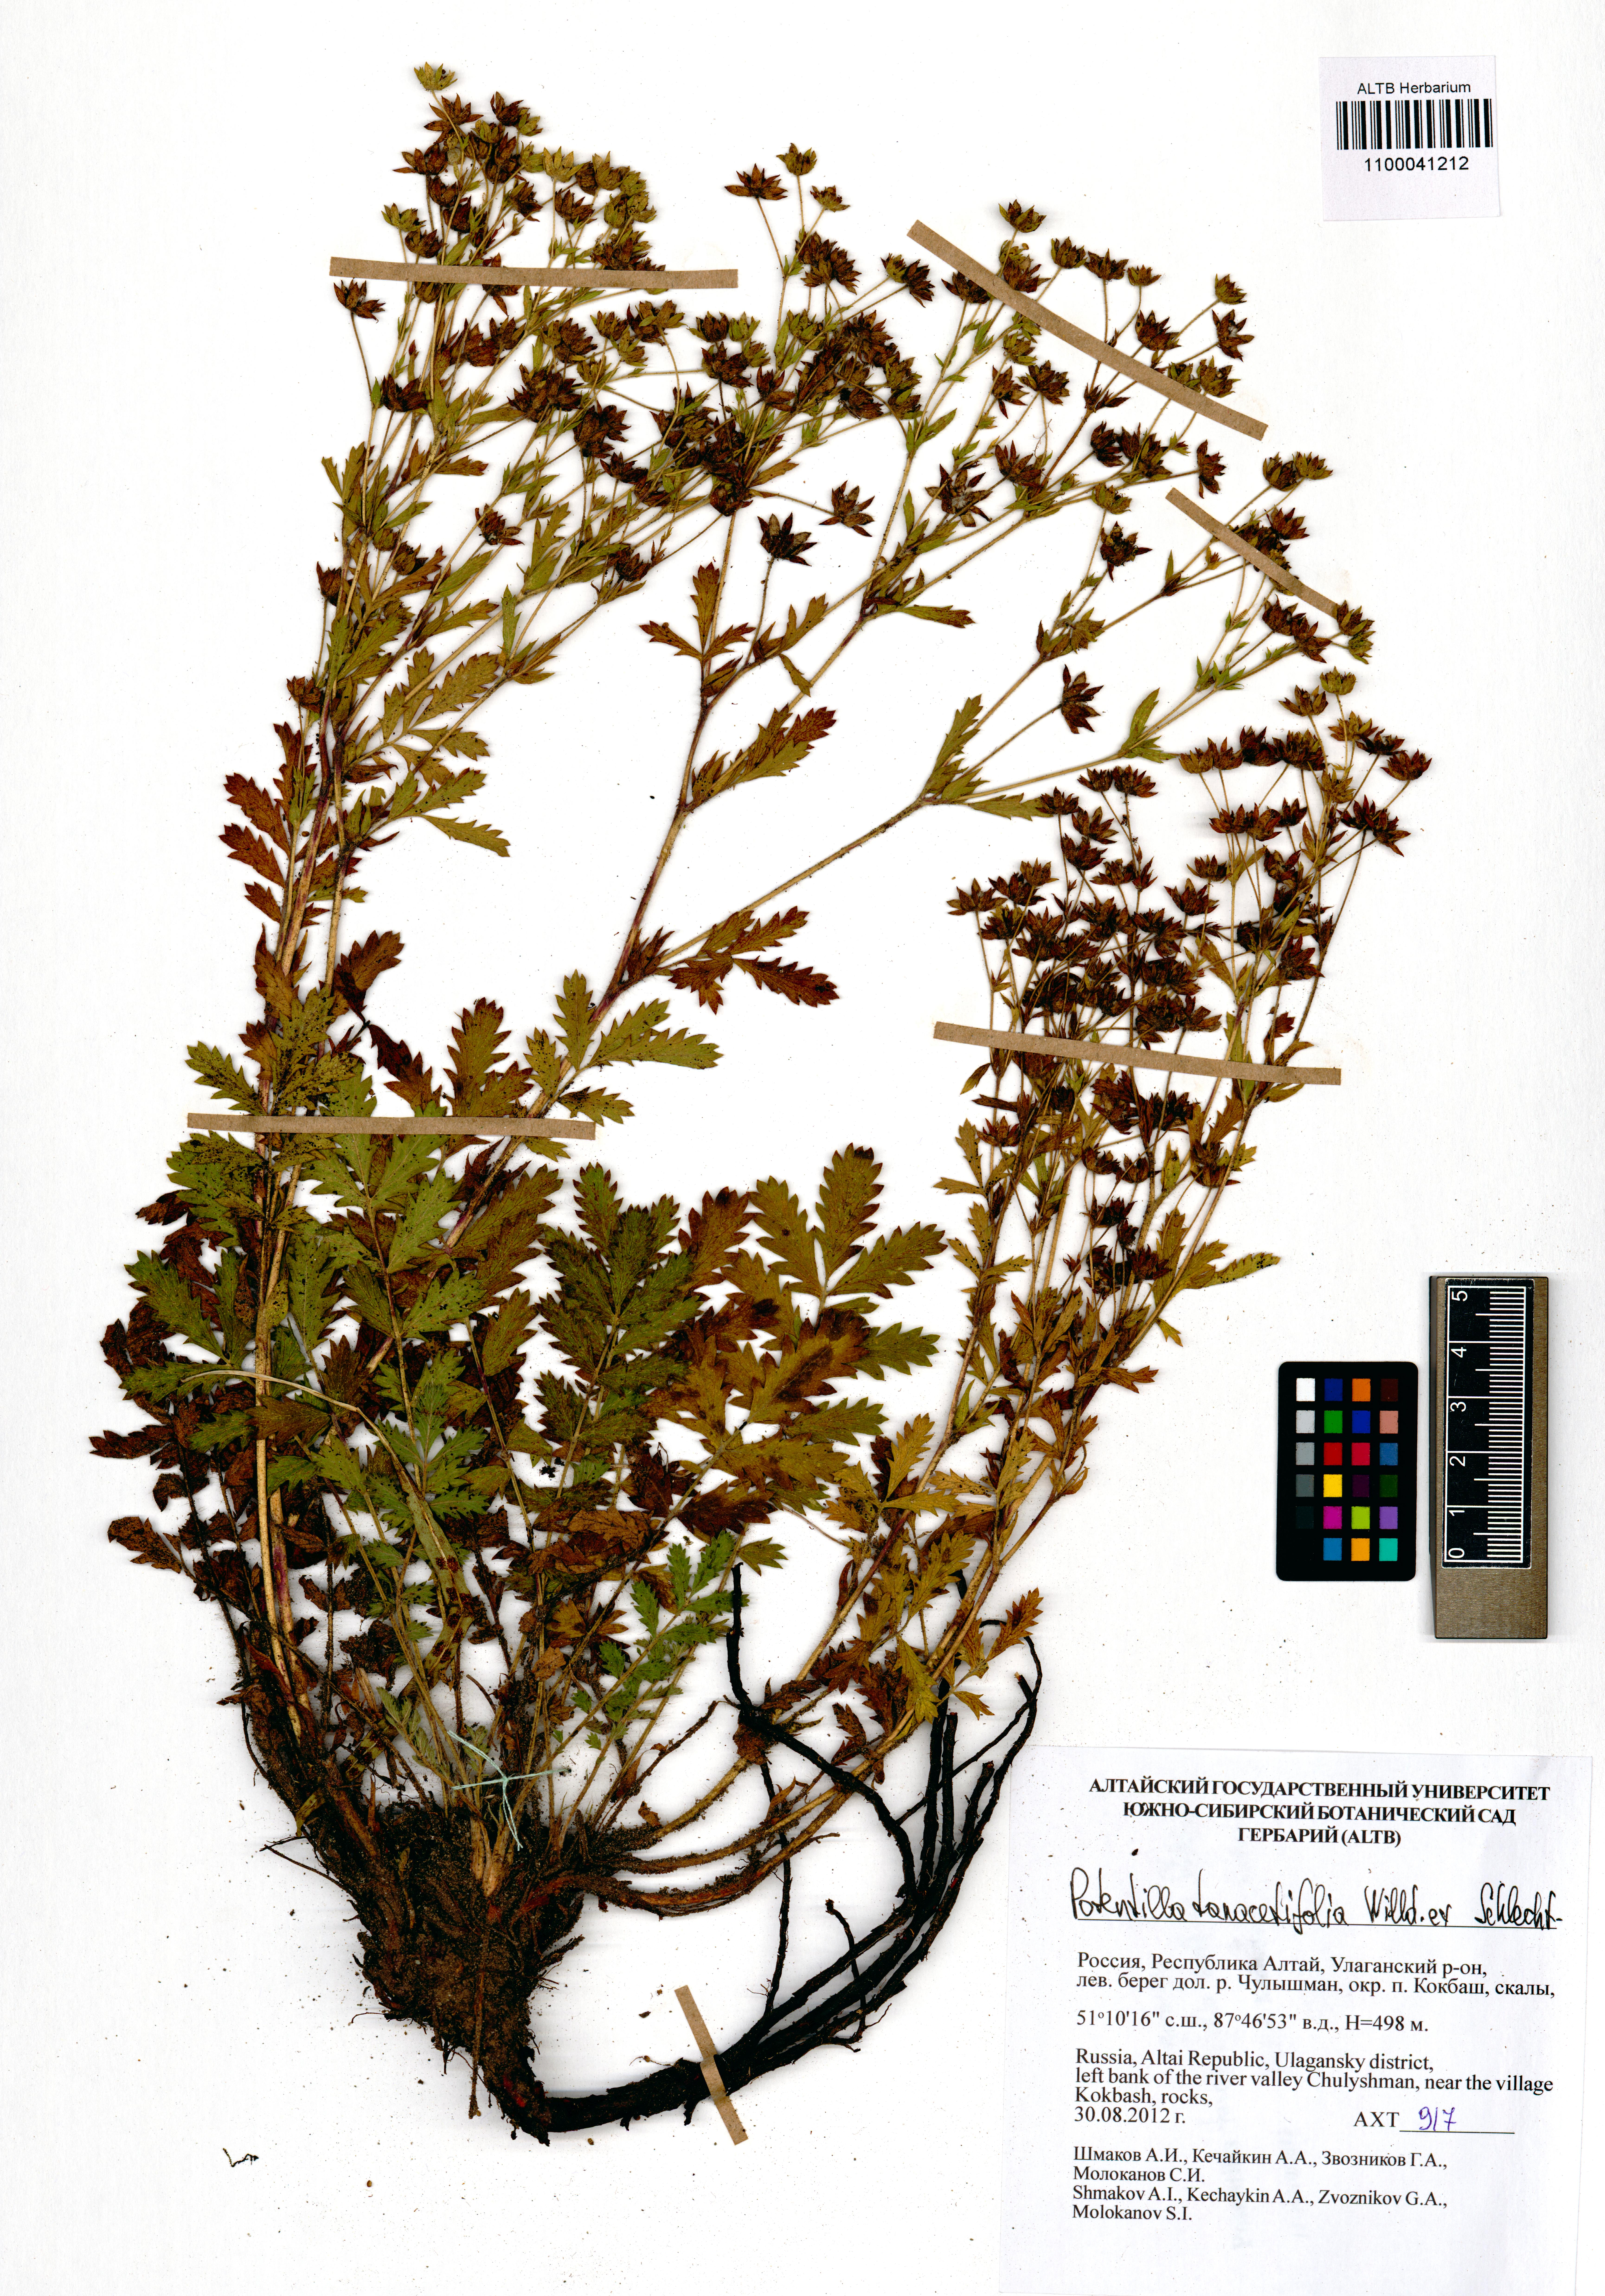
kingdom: Plantae
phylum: Tracheophyta
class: Magnoliopsida
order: Rosales
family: Rosaceae
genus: Potentilla
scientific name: Potentilla tanacetifolia
